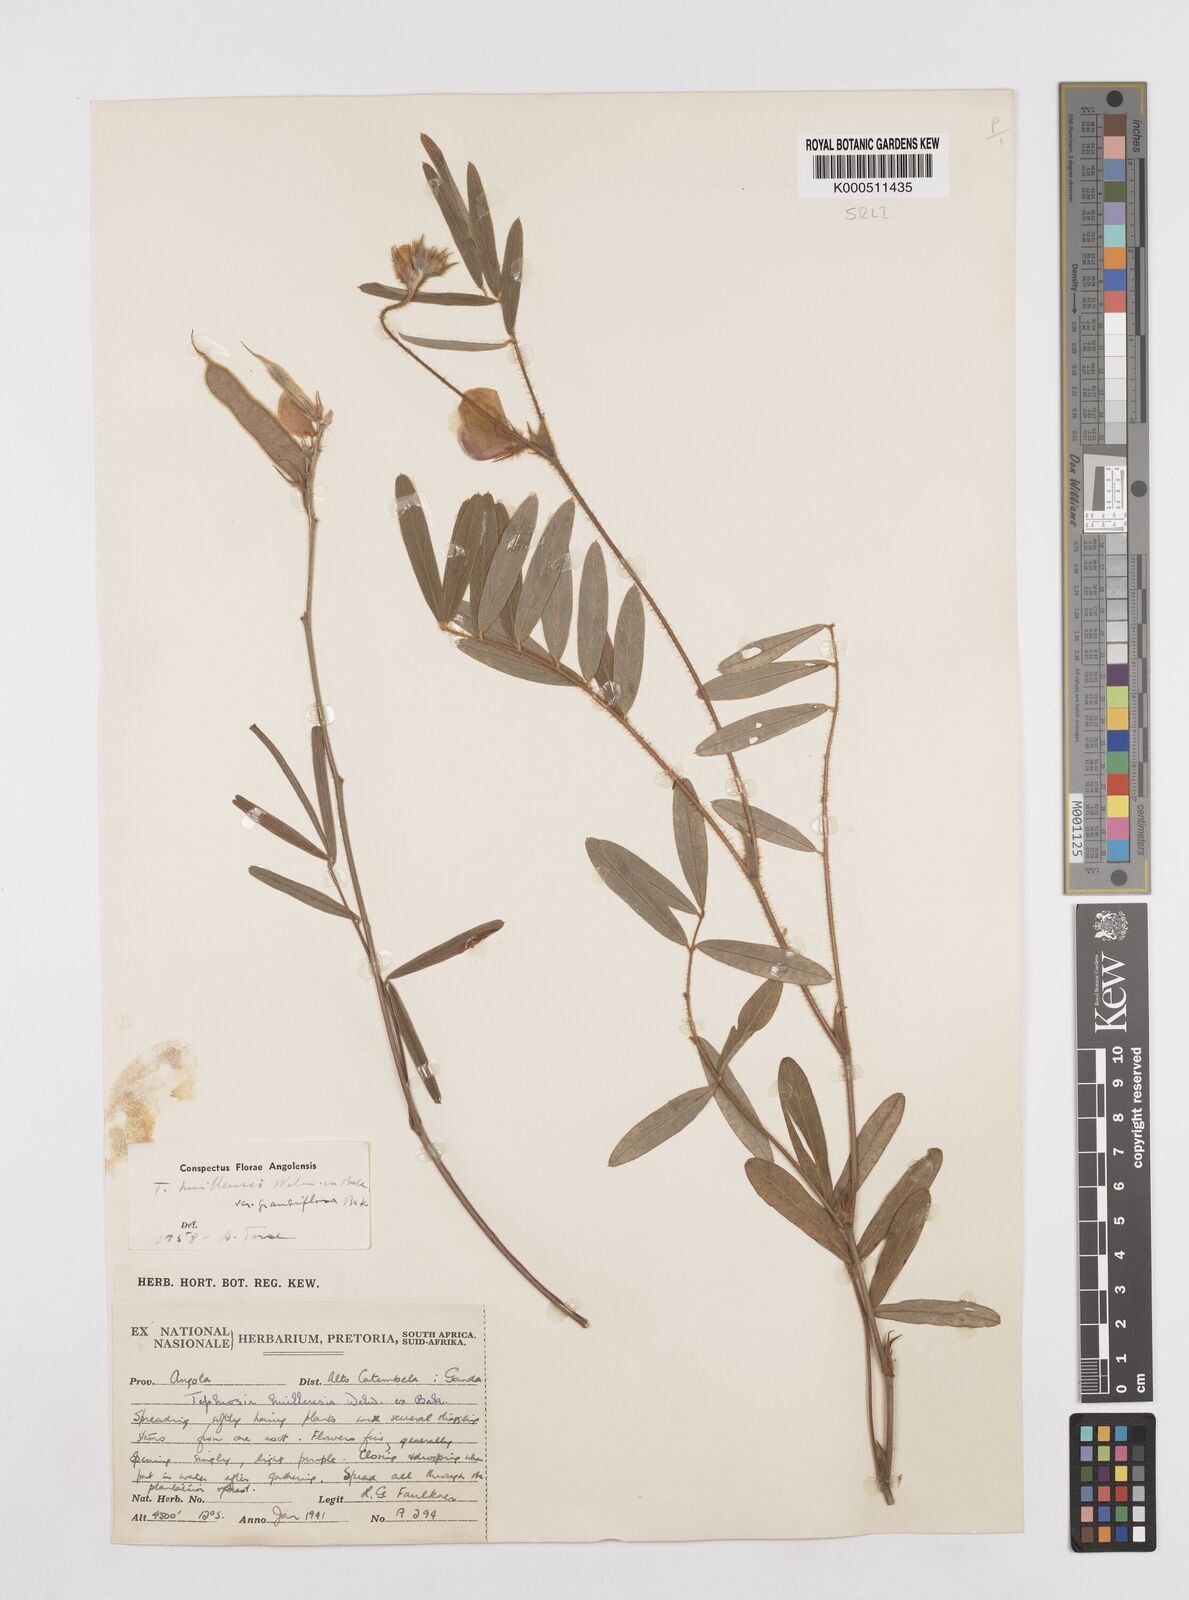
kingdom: Plantae
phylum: Tracheophyta
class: Magnoliopsida
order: Fabales
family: Fabaceae
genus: Tephrosia
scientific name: Tephrosia
